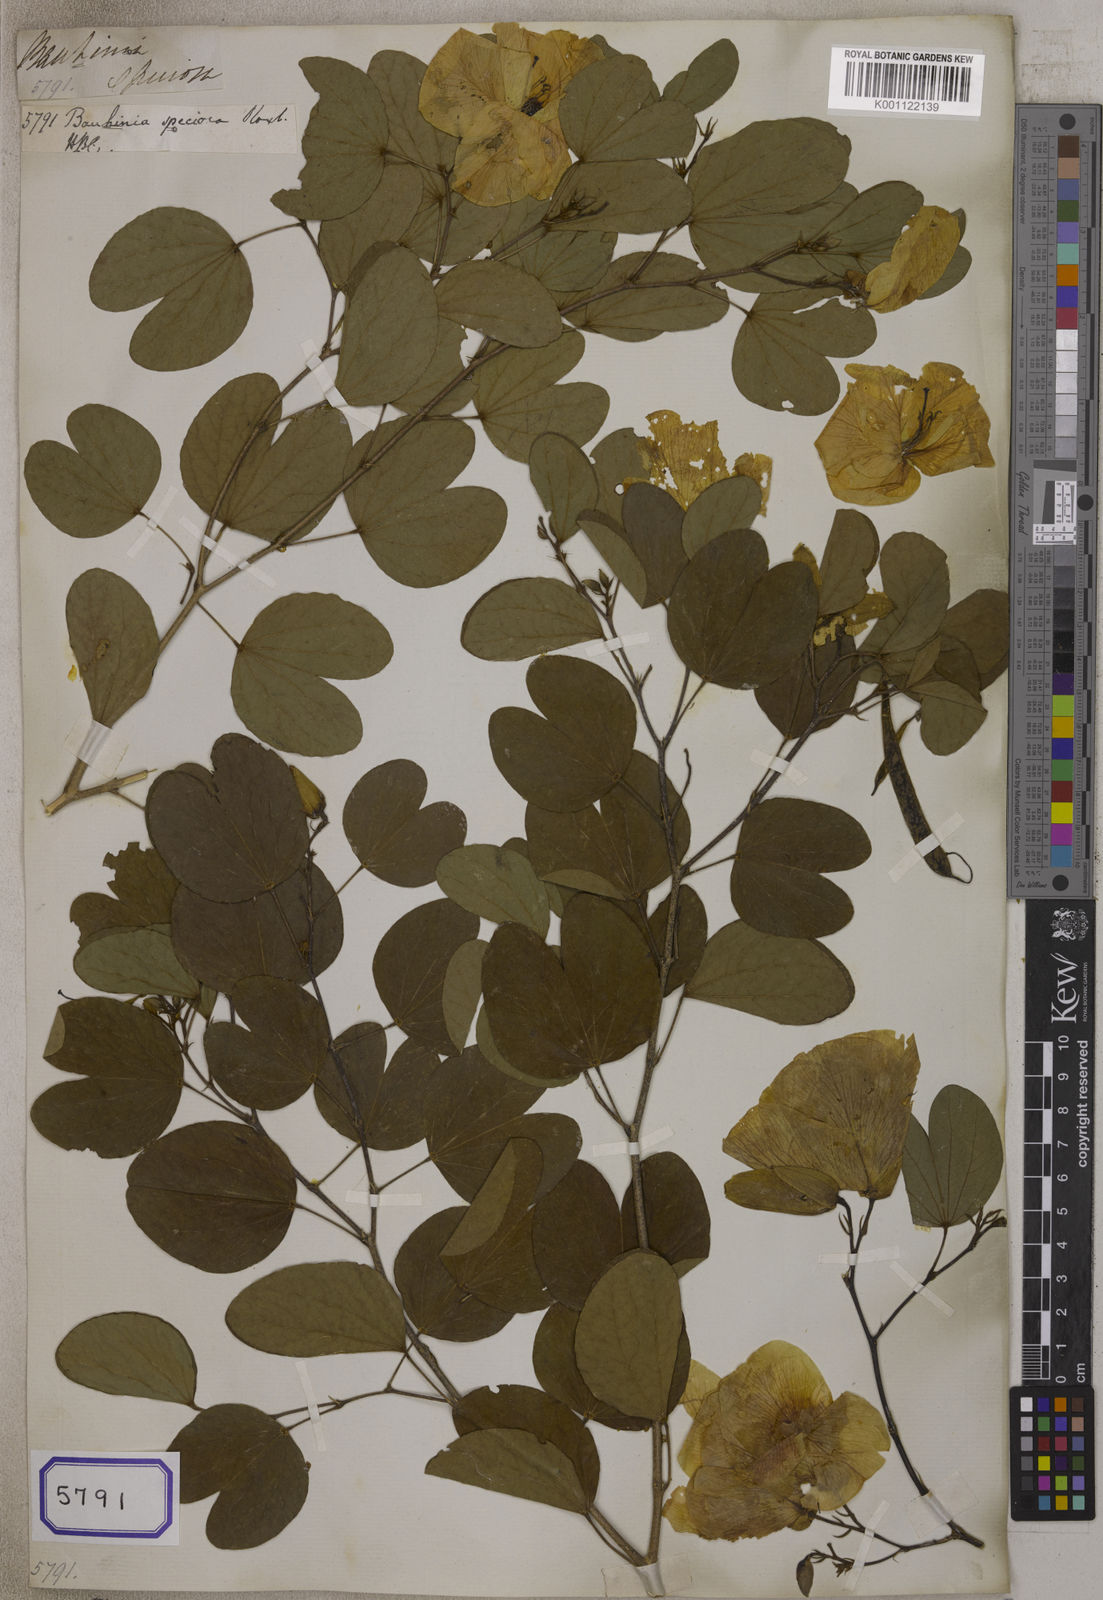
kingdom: Plantae
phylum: Tracheophyta
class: Magnoliopsida
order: Fabales
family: Fabaceae
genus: Bauhinia
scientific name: Bauhinia
